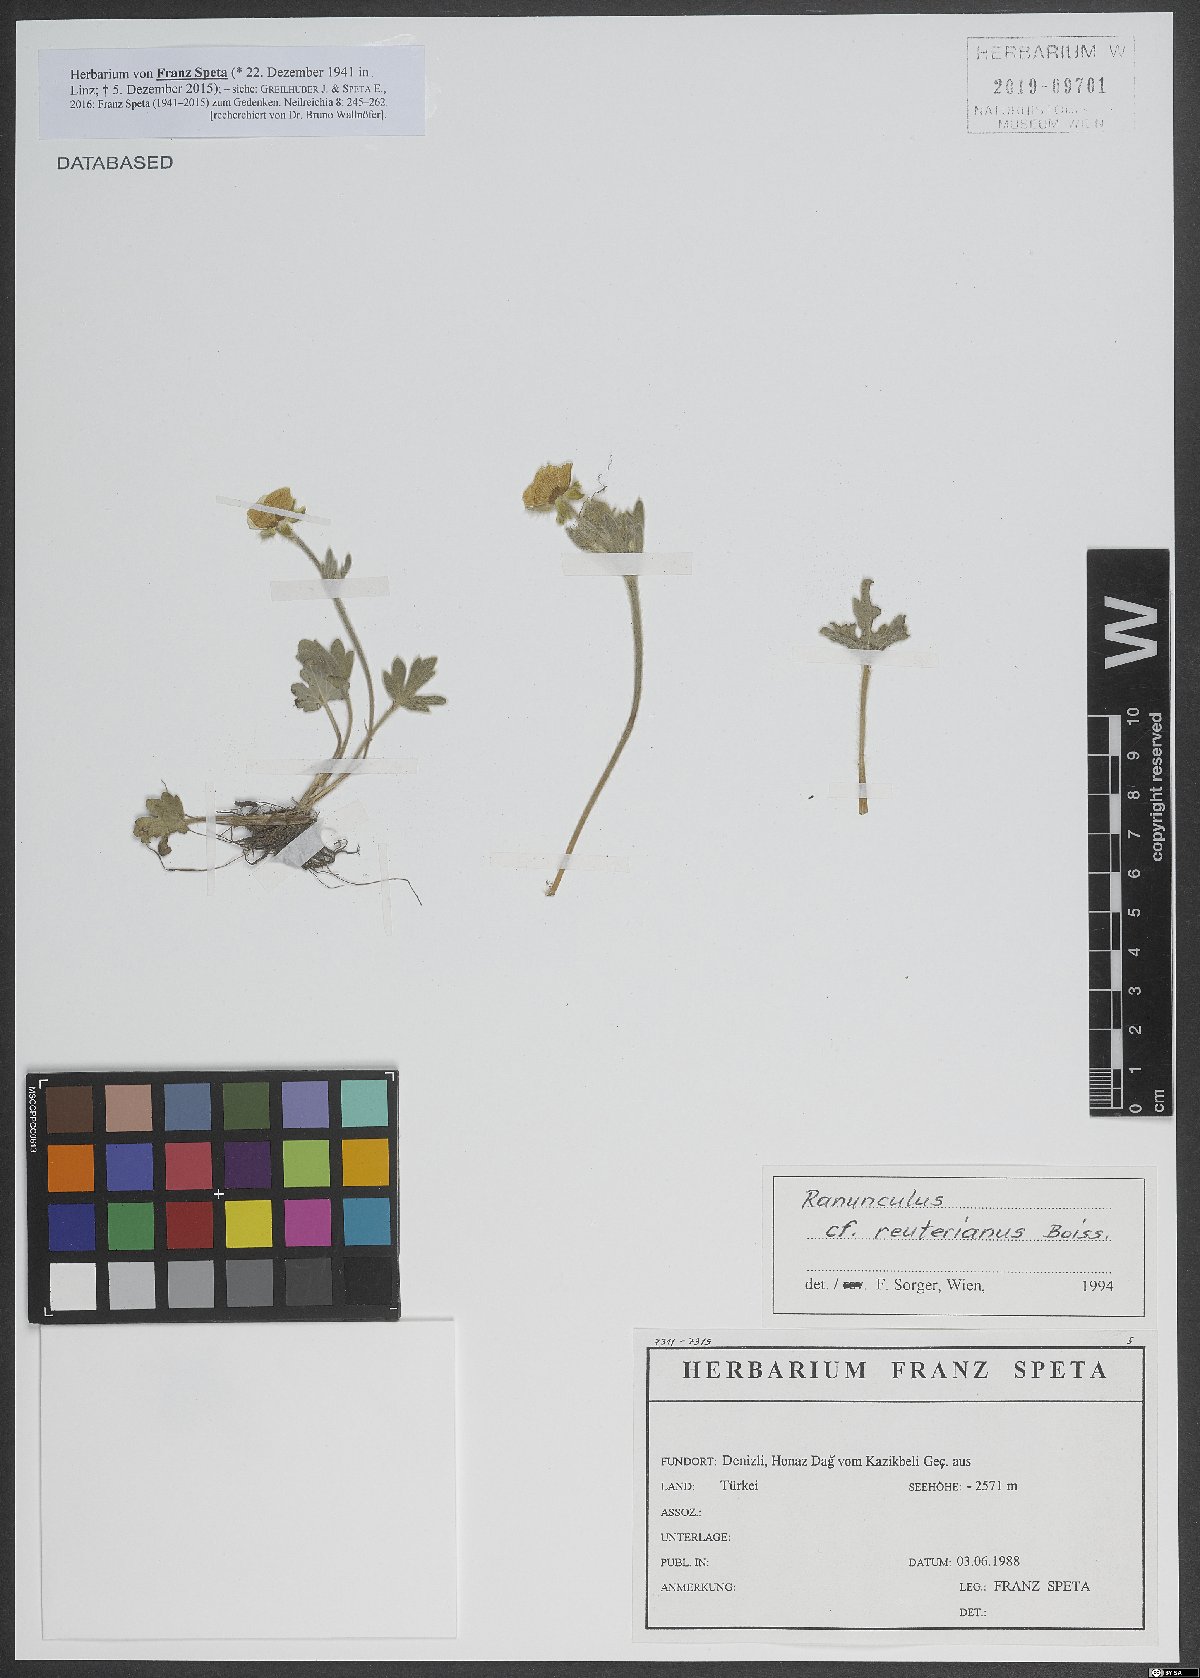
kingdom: Plantae
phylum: Tracheophyta
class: Magnoliopsida
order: Ranunculales
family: Ranunculaceae
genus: Ranunculus
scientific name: Ranunculus reuterianus
